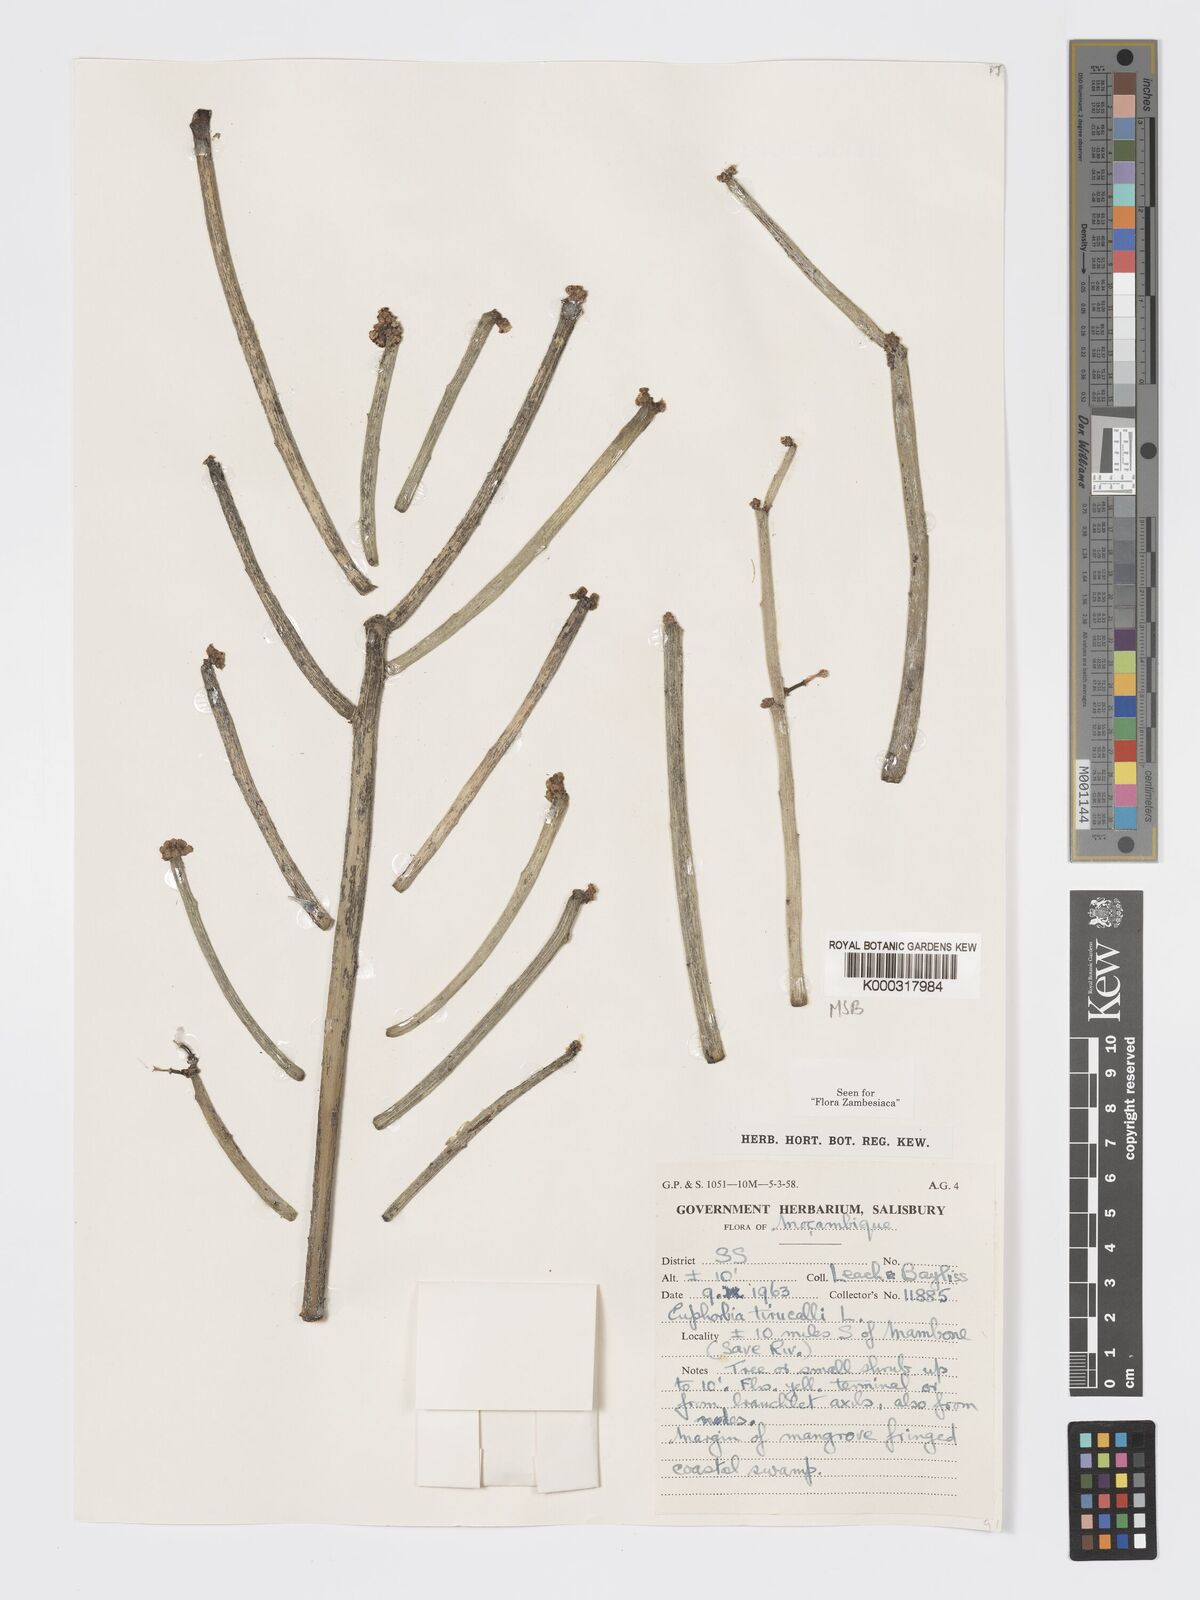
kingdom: Plantae
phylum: Tracheophyta
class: Magnoliopsida
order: Malpighiales
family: Euphorbiaceae
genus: Euphorbia
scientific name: Euphorbia tirucalli
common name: Indiantree spurge
